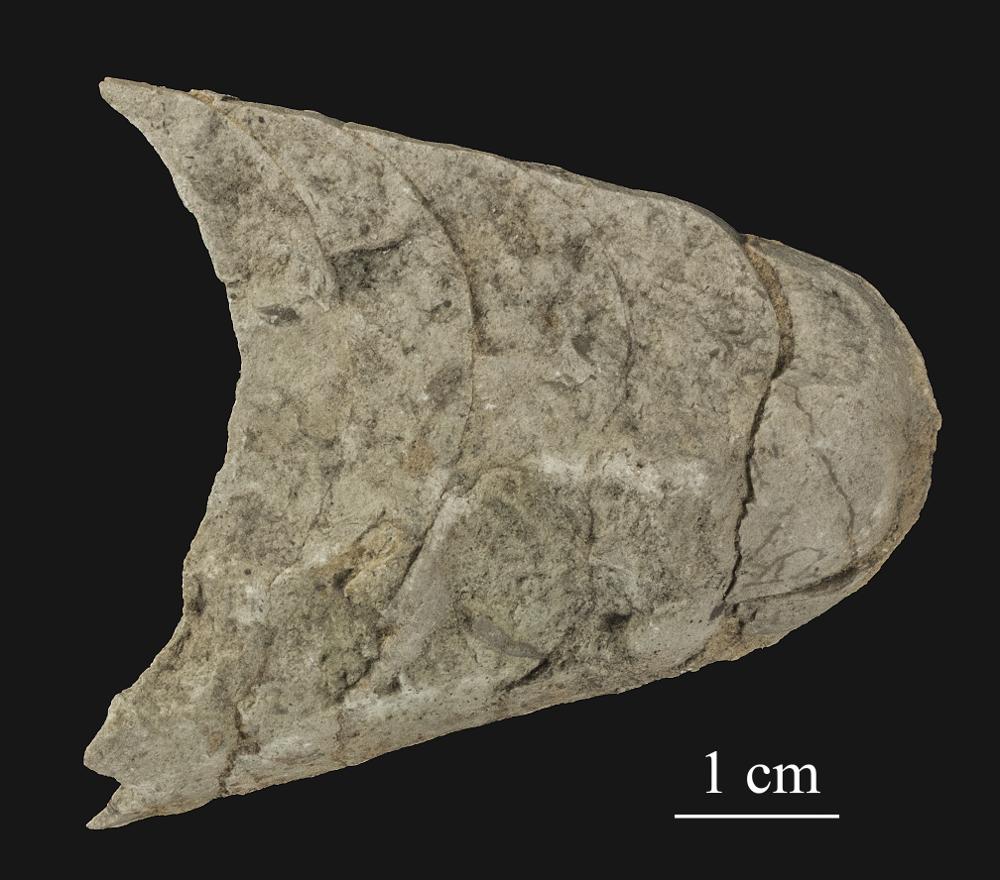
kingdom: Animalia
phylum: Mollusca
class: Cephalopoda
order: Nautilida
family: Nautilidae
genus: Cyrtoceras
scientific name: Cyrtoceras
